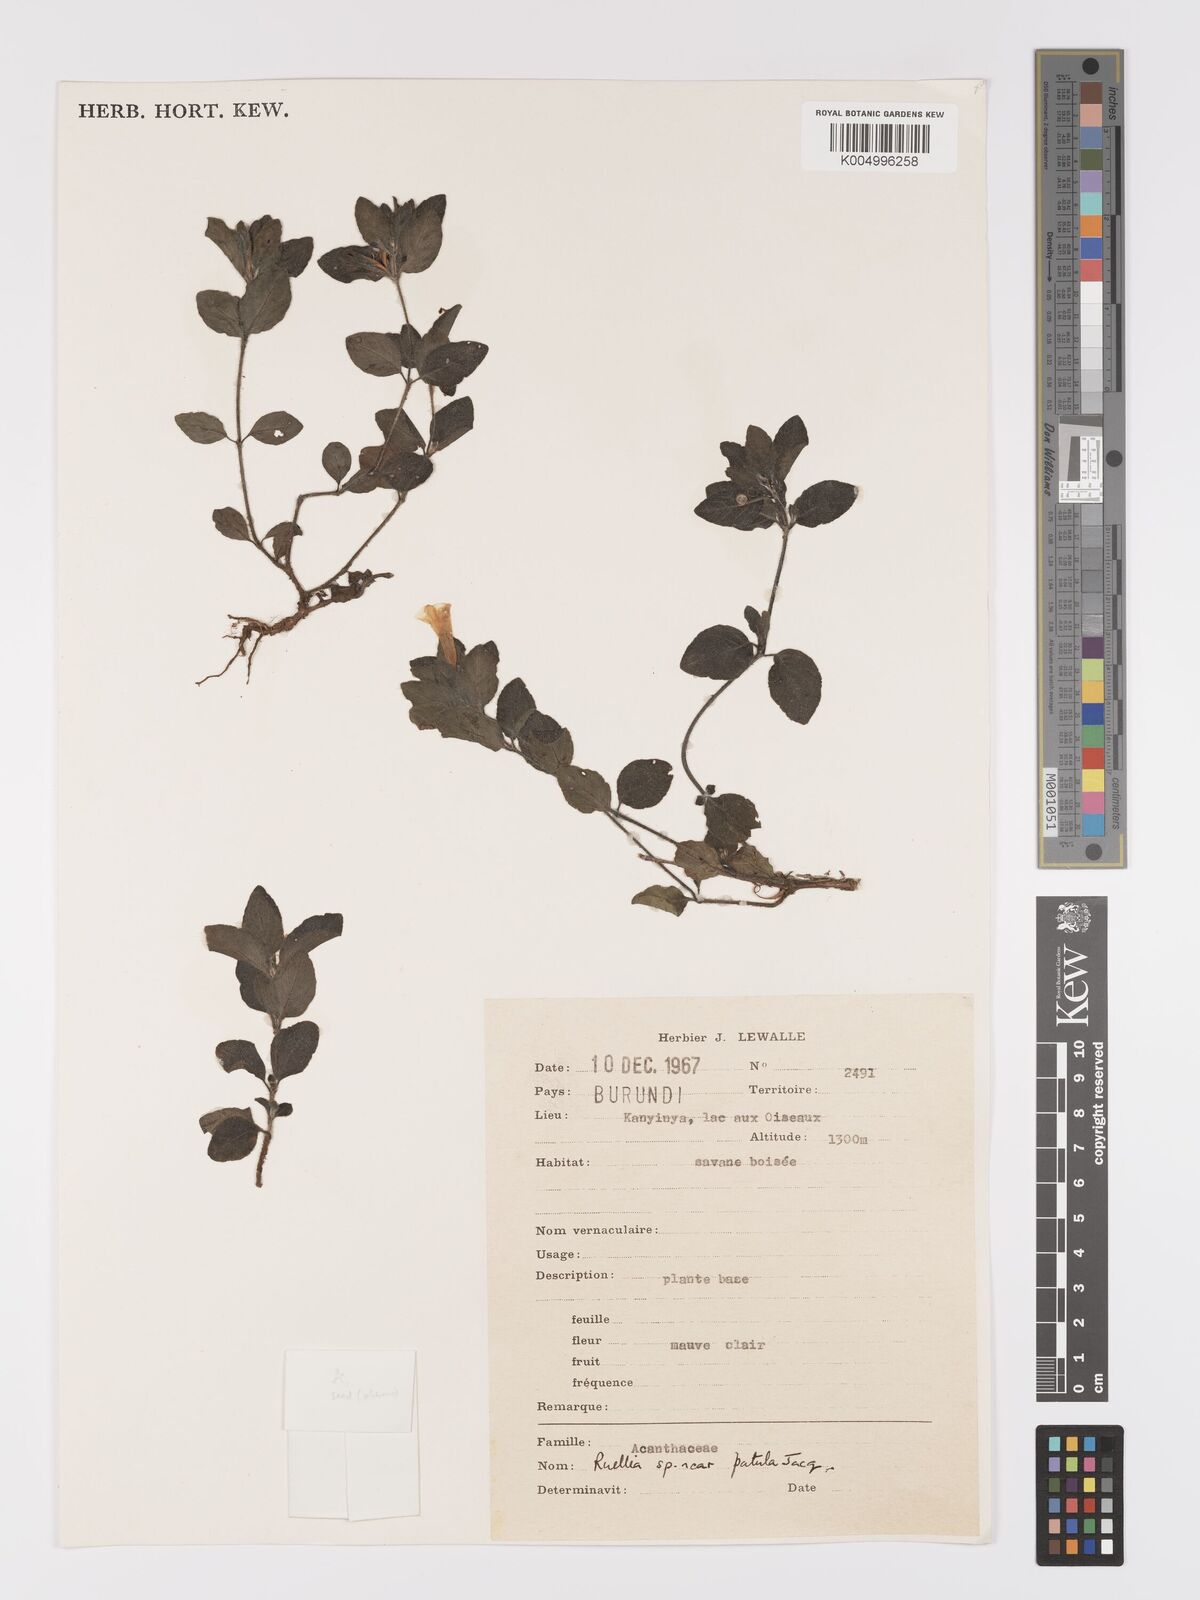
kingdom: Plantae
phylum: Tracheophyta
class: Magnoliopsida
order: Lamiales
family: Acanthaceae
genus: Ruellia
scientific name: Ruellia patula
